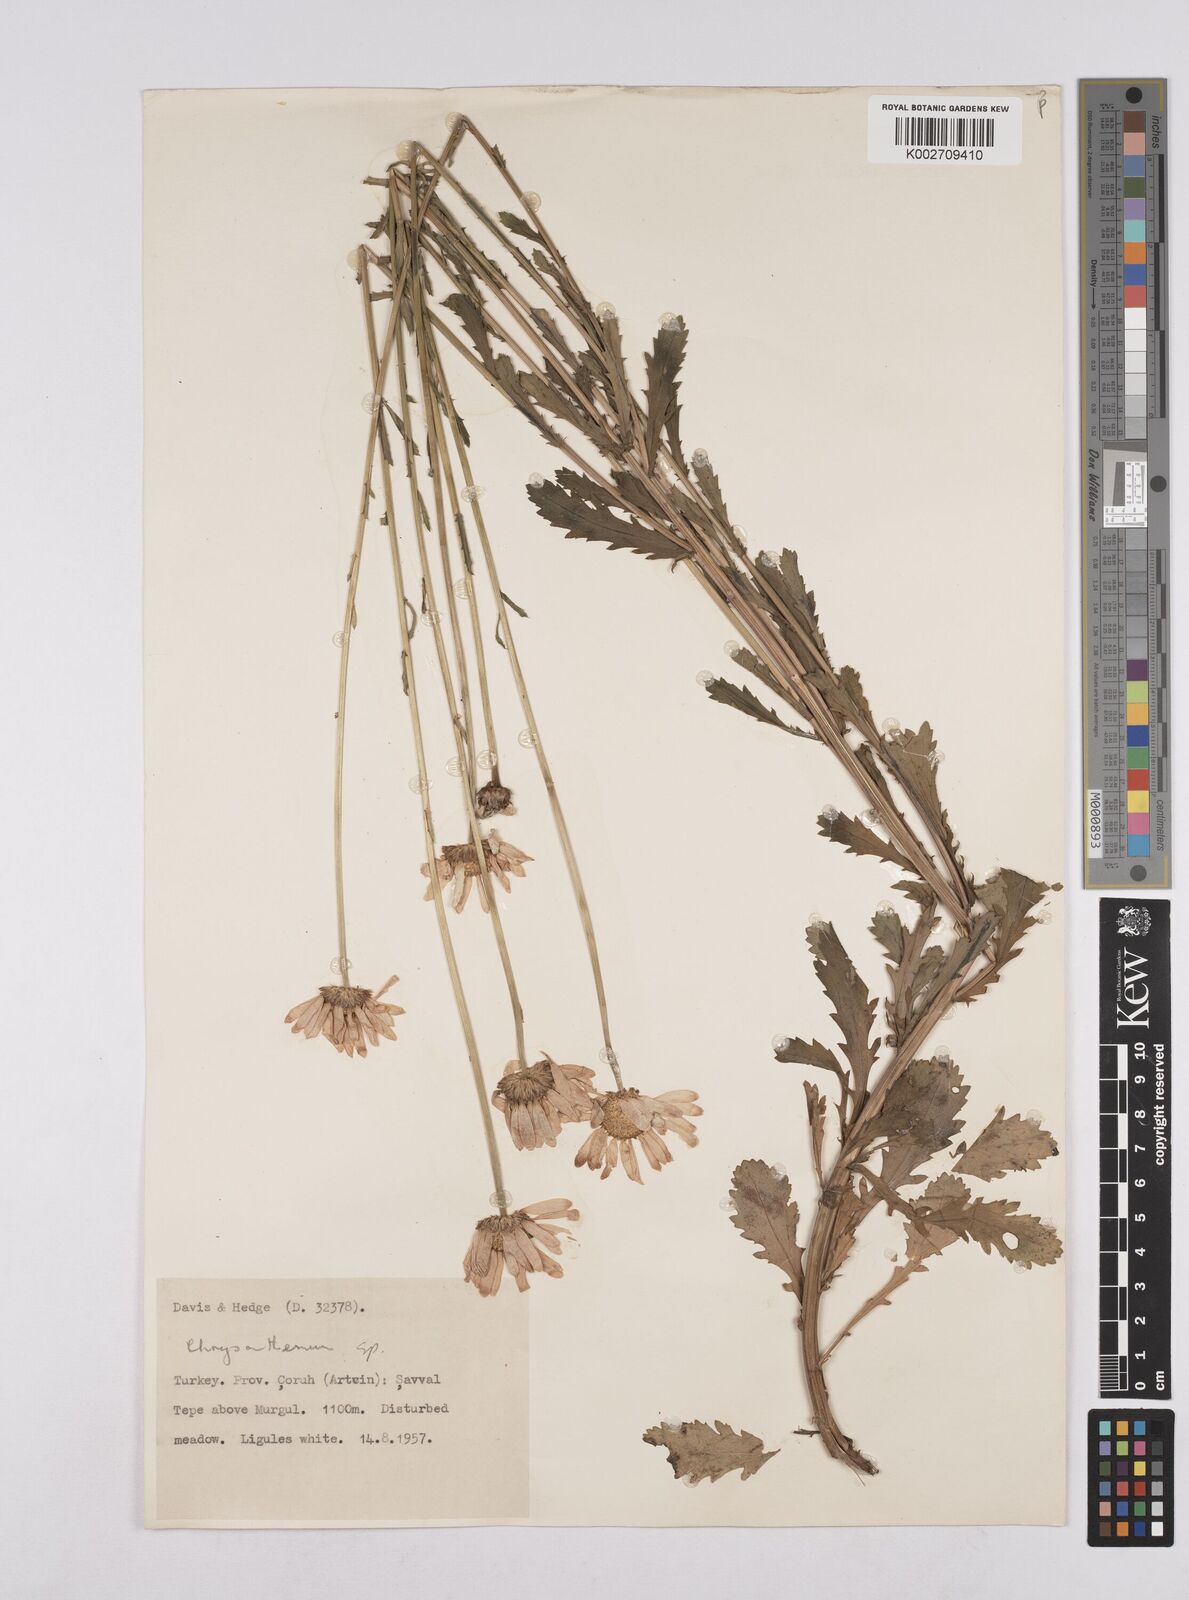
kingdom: Plantae
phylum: Tracheophyta
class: Magnoliopsida
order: Asterales
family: Asteraceae
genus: Leucanthemum
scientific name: Leucanthemum
